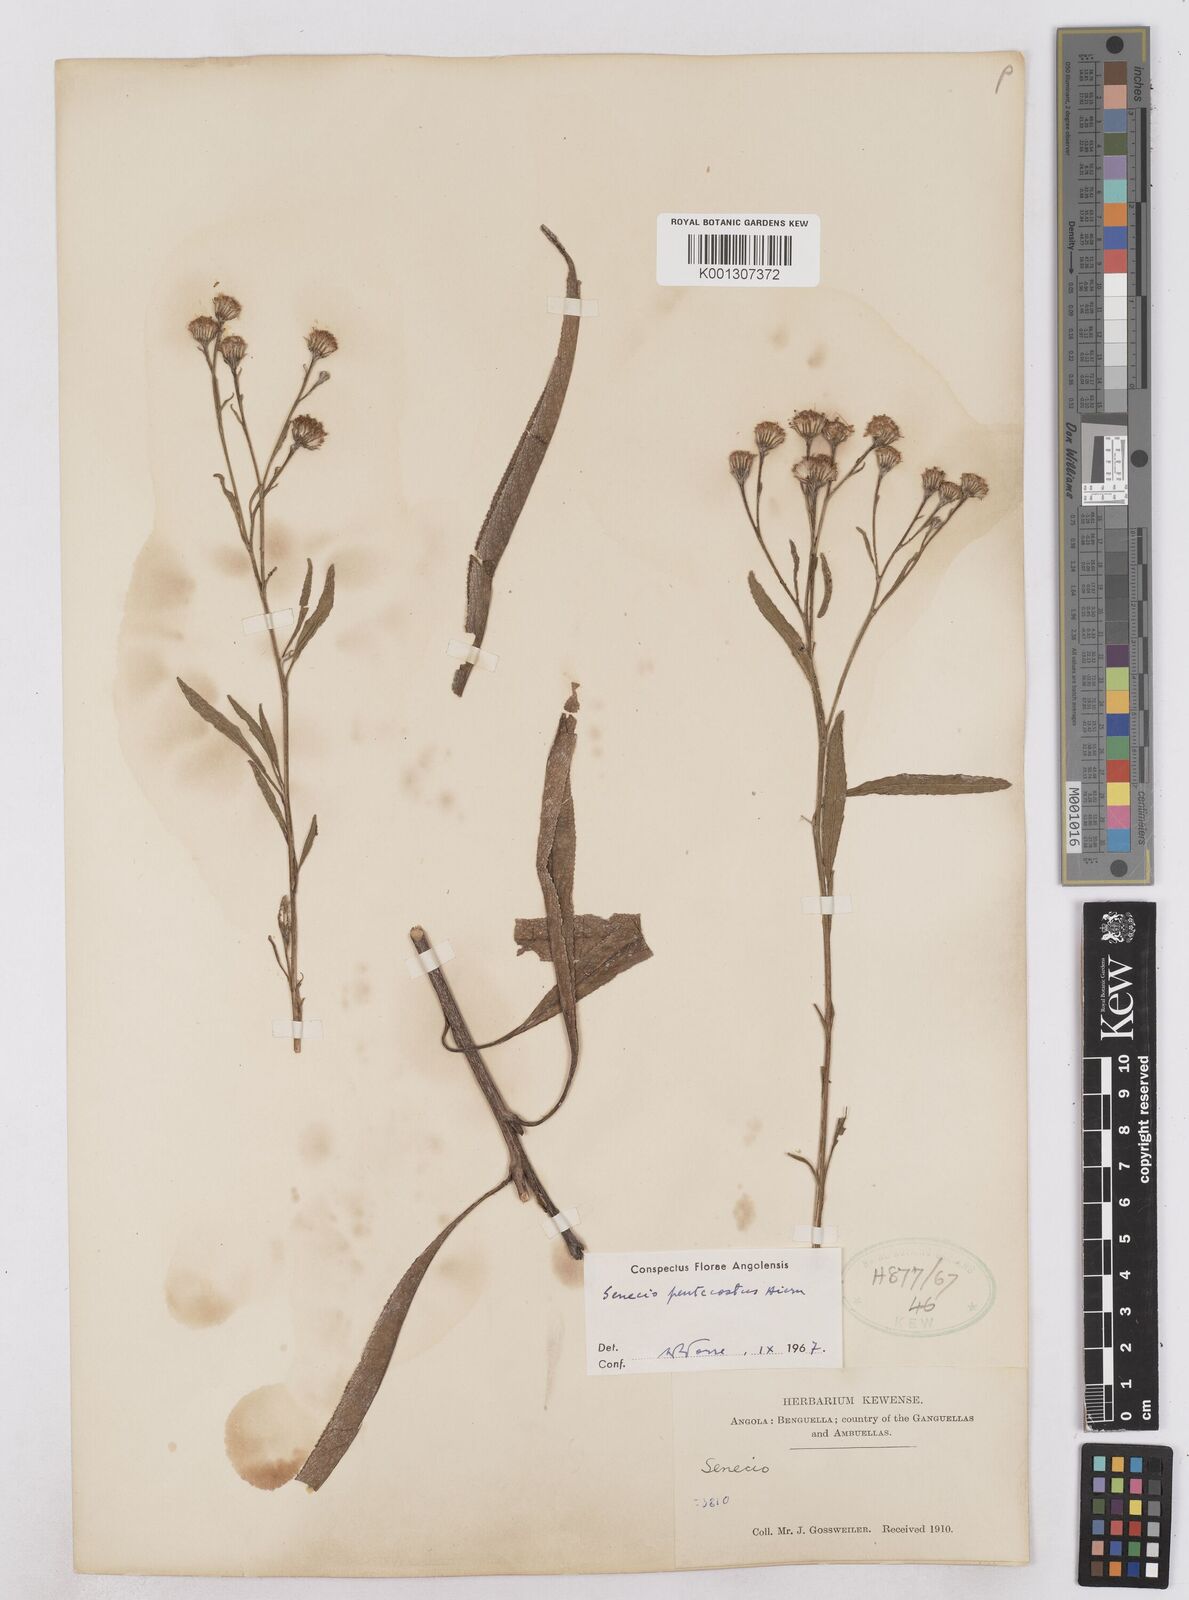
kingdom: Plantae
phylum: Tracheophyta
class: Magnoliopsida
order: Asterales
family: Asteraceae
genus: Senecio
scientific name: Senecio pentecostus
